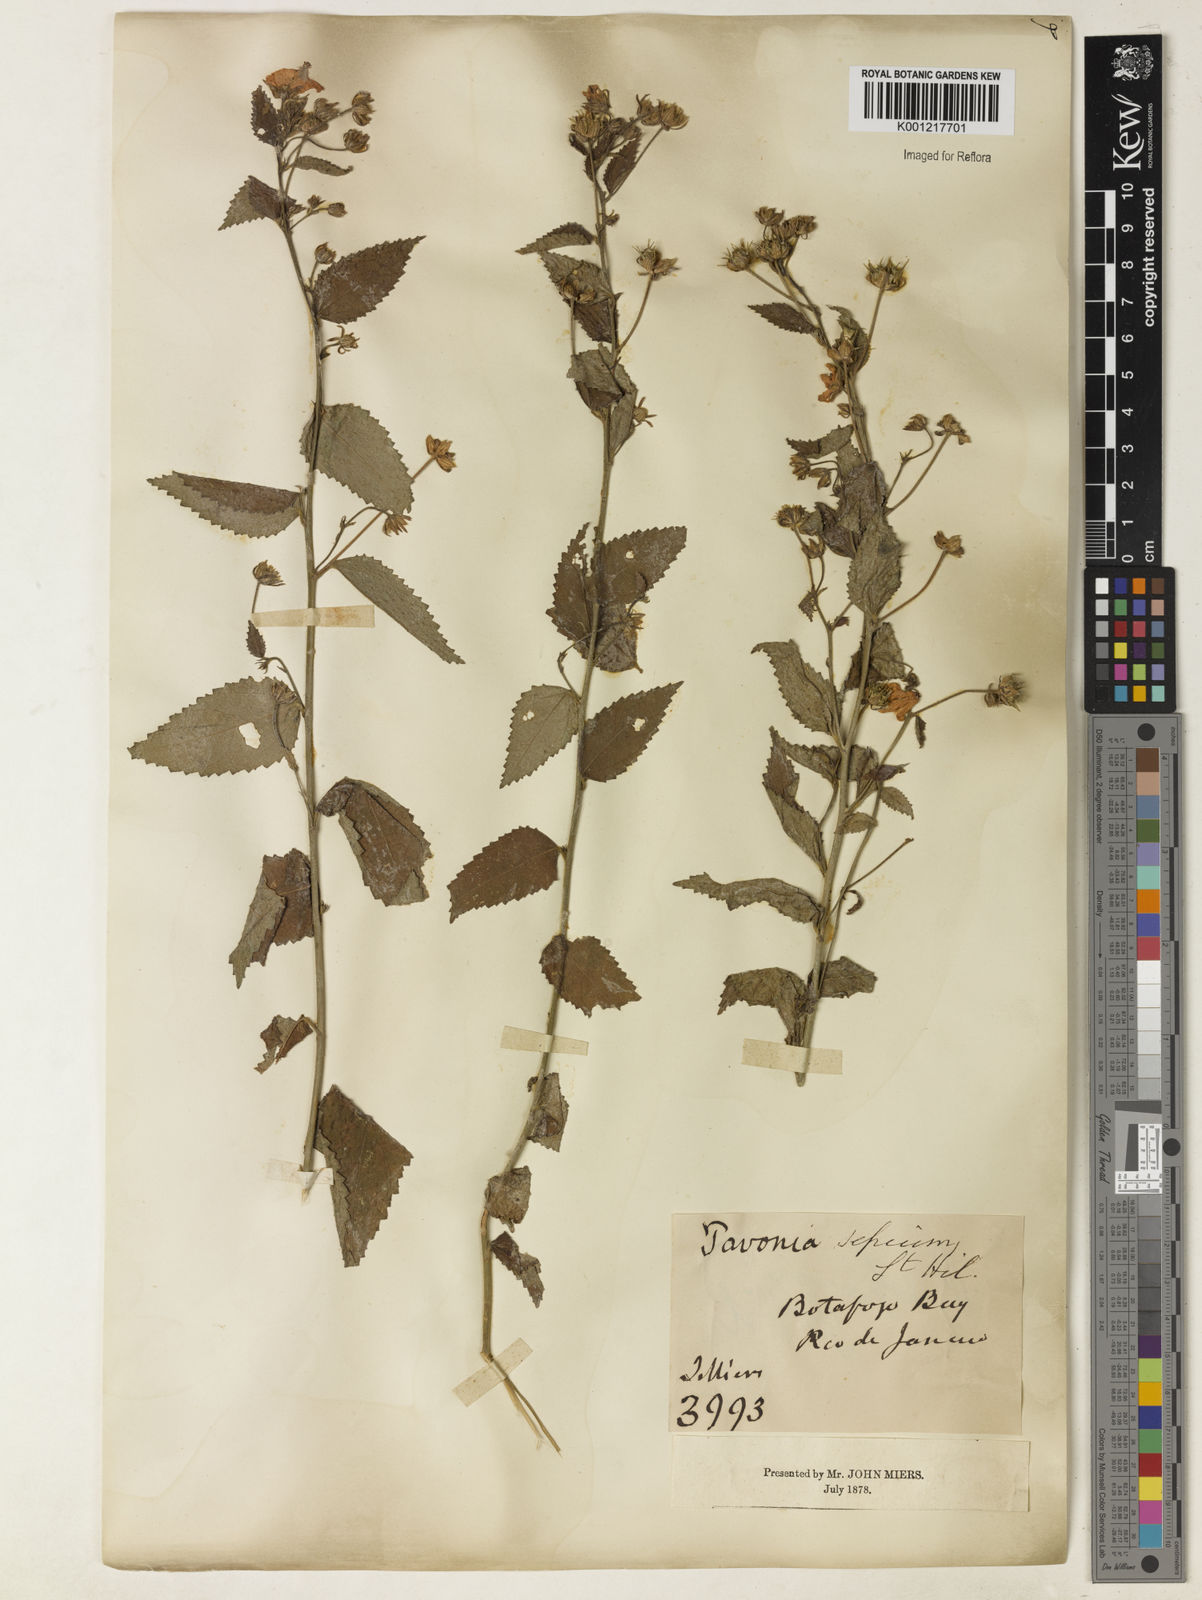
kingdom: Plantae
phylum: Tracheophyta
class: Magnoliopsida
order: Malvales
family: Malvaceae
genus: Pavonia
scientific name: Pavonia sepium
